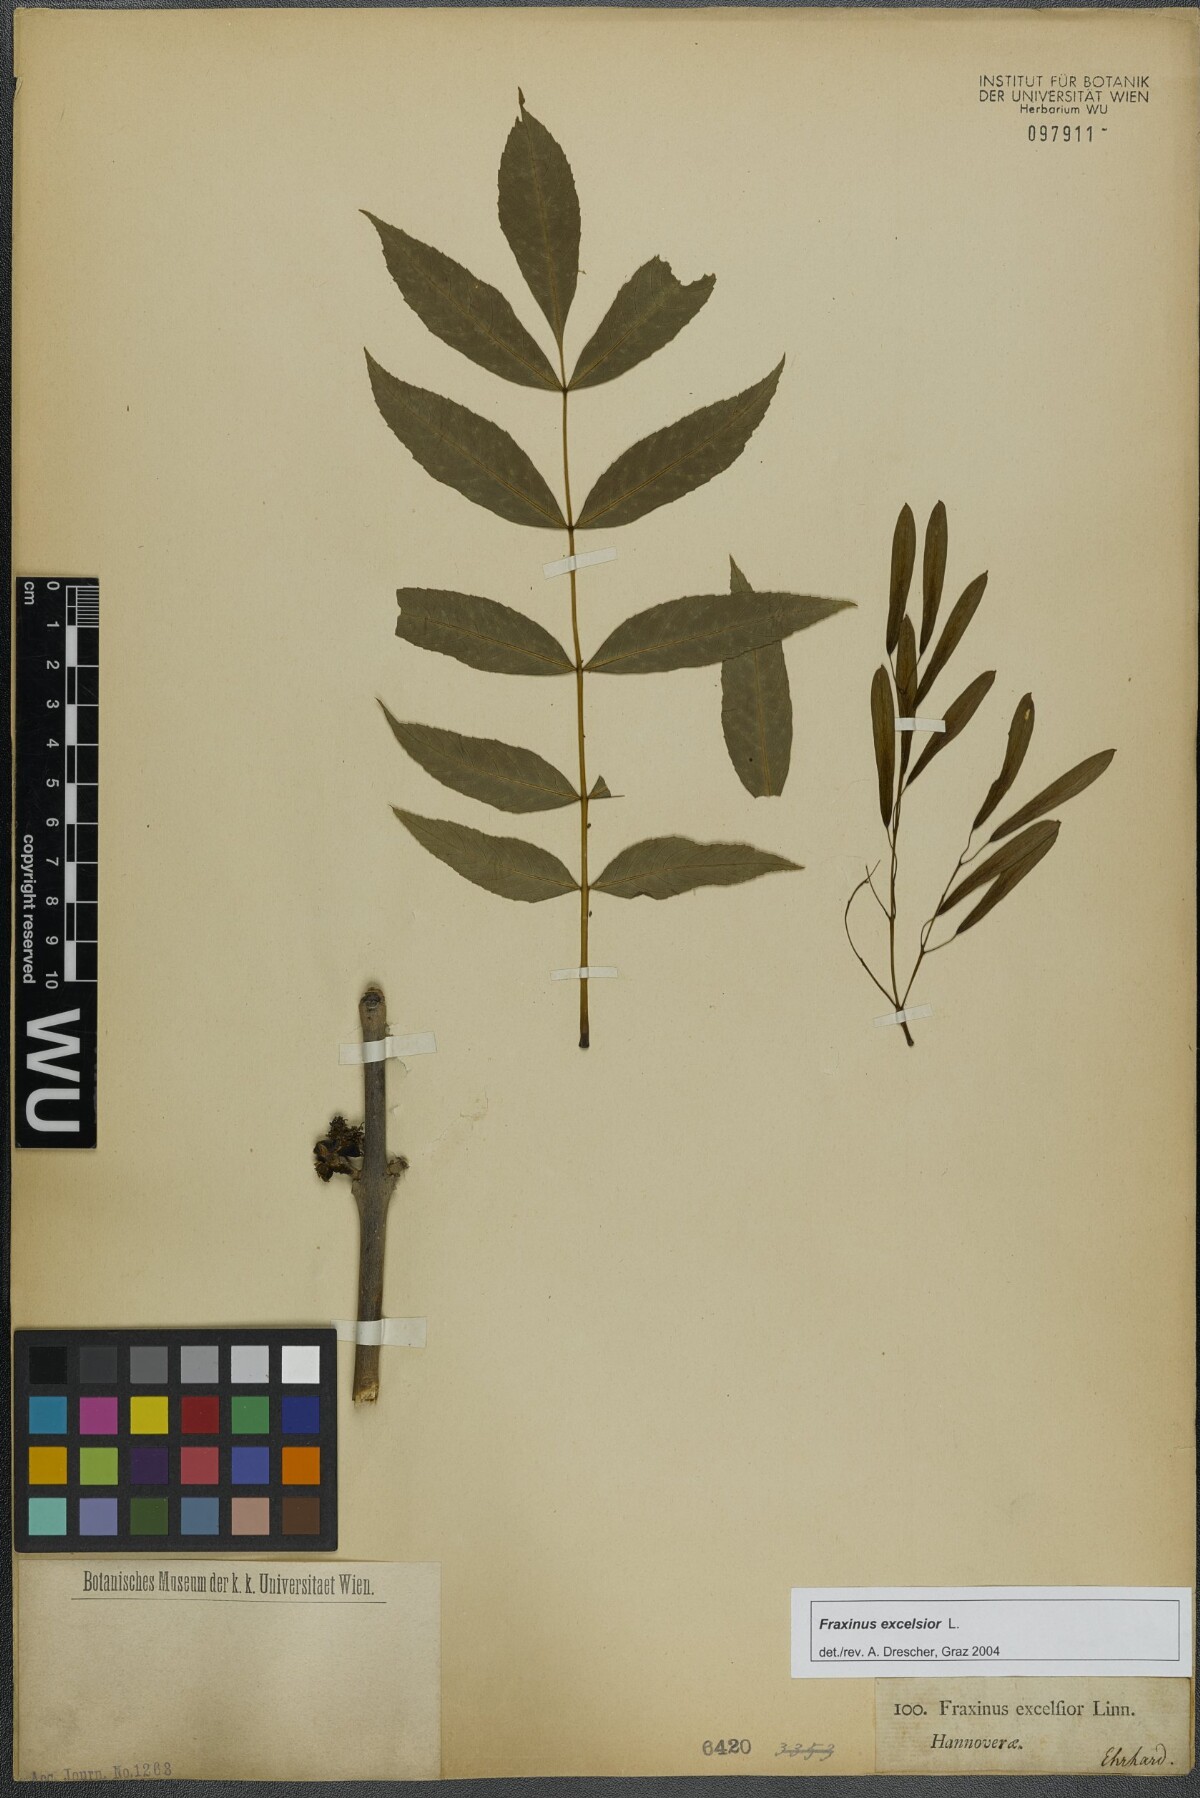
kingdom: Plantae
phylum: Tracheophyta
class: Magnoliopsida
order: Lamiales
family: Oleaceae
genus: Fraxinus
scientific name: Fraxinus excelsior
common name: European ash
